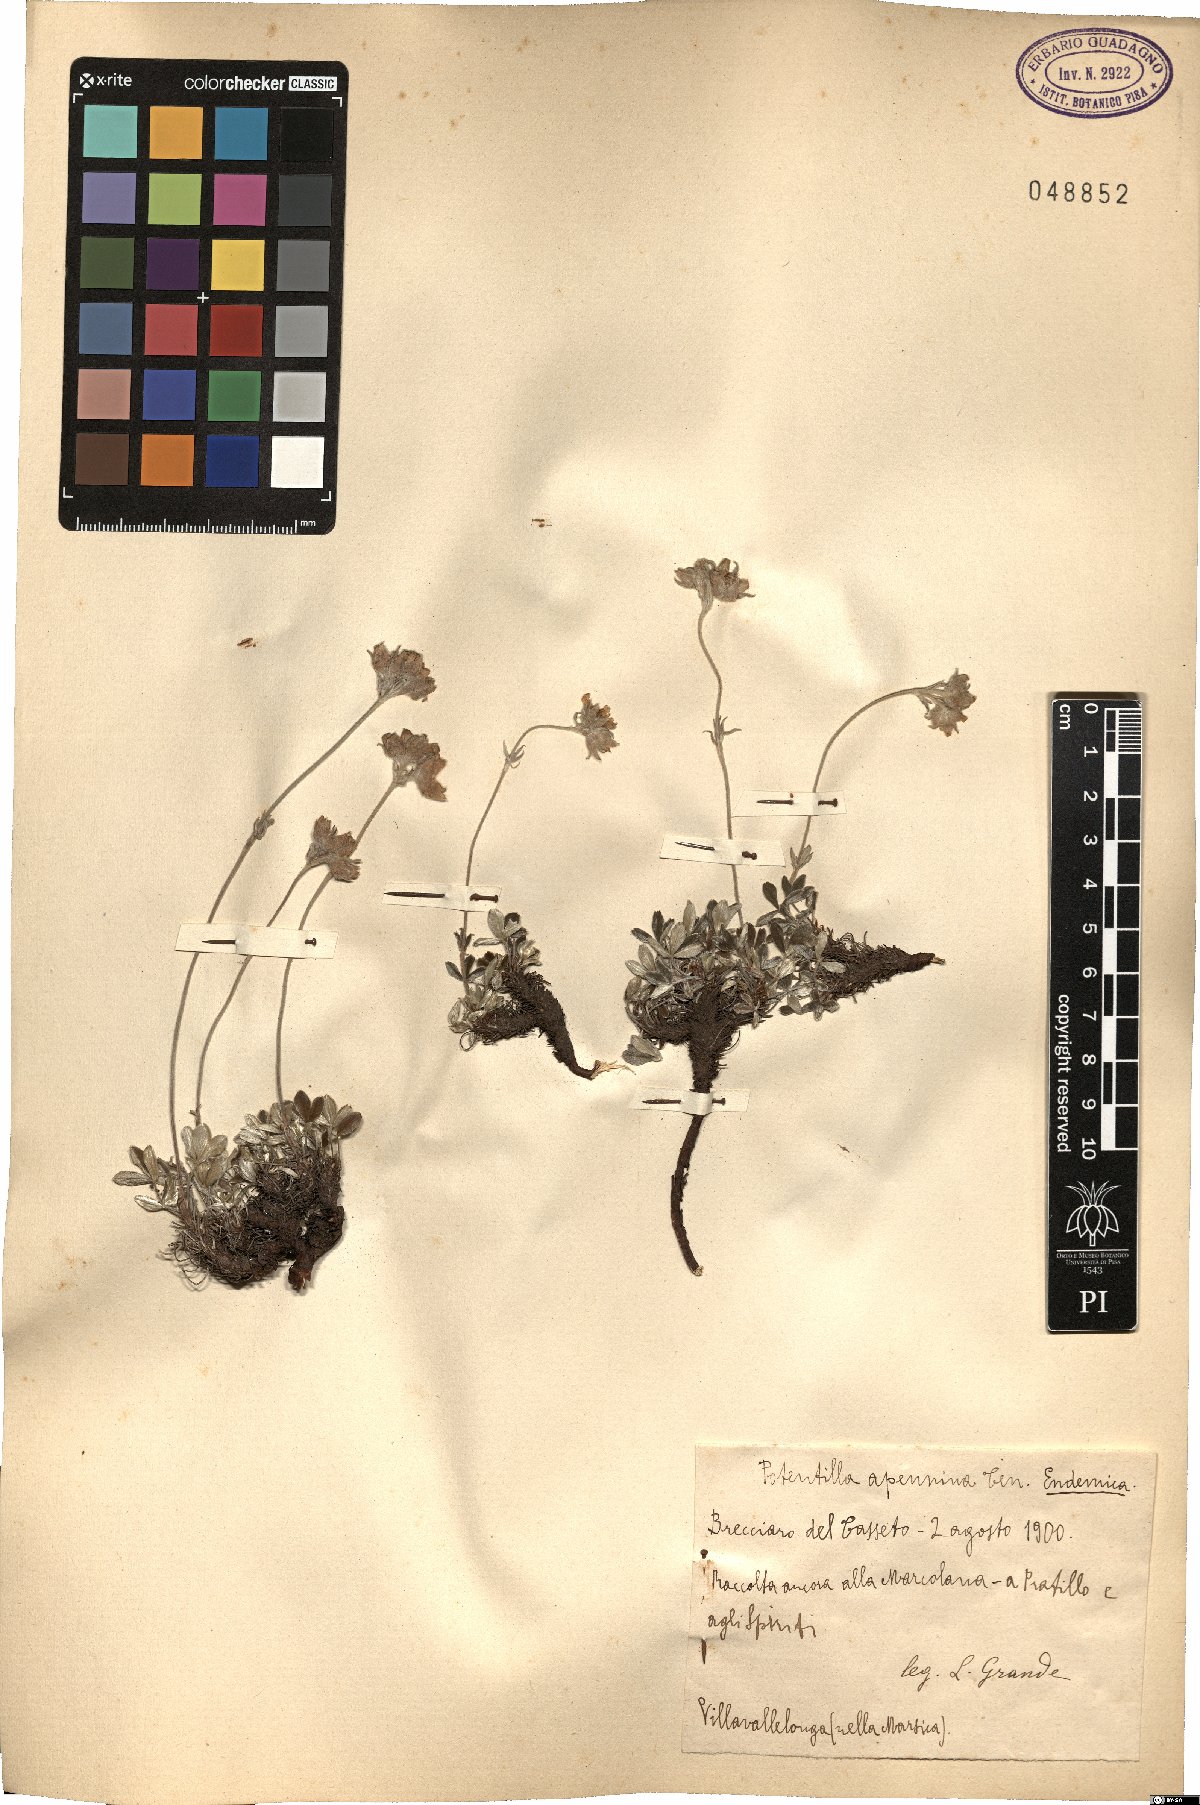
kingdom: Plantae
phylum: Tracheophyta
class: Magnoliopsida
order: Rosales
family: Rosaceae
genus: Potentilla
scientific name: Potentilla apennina
